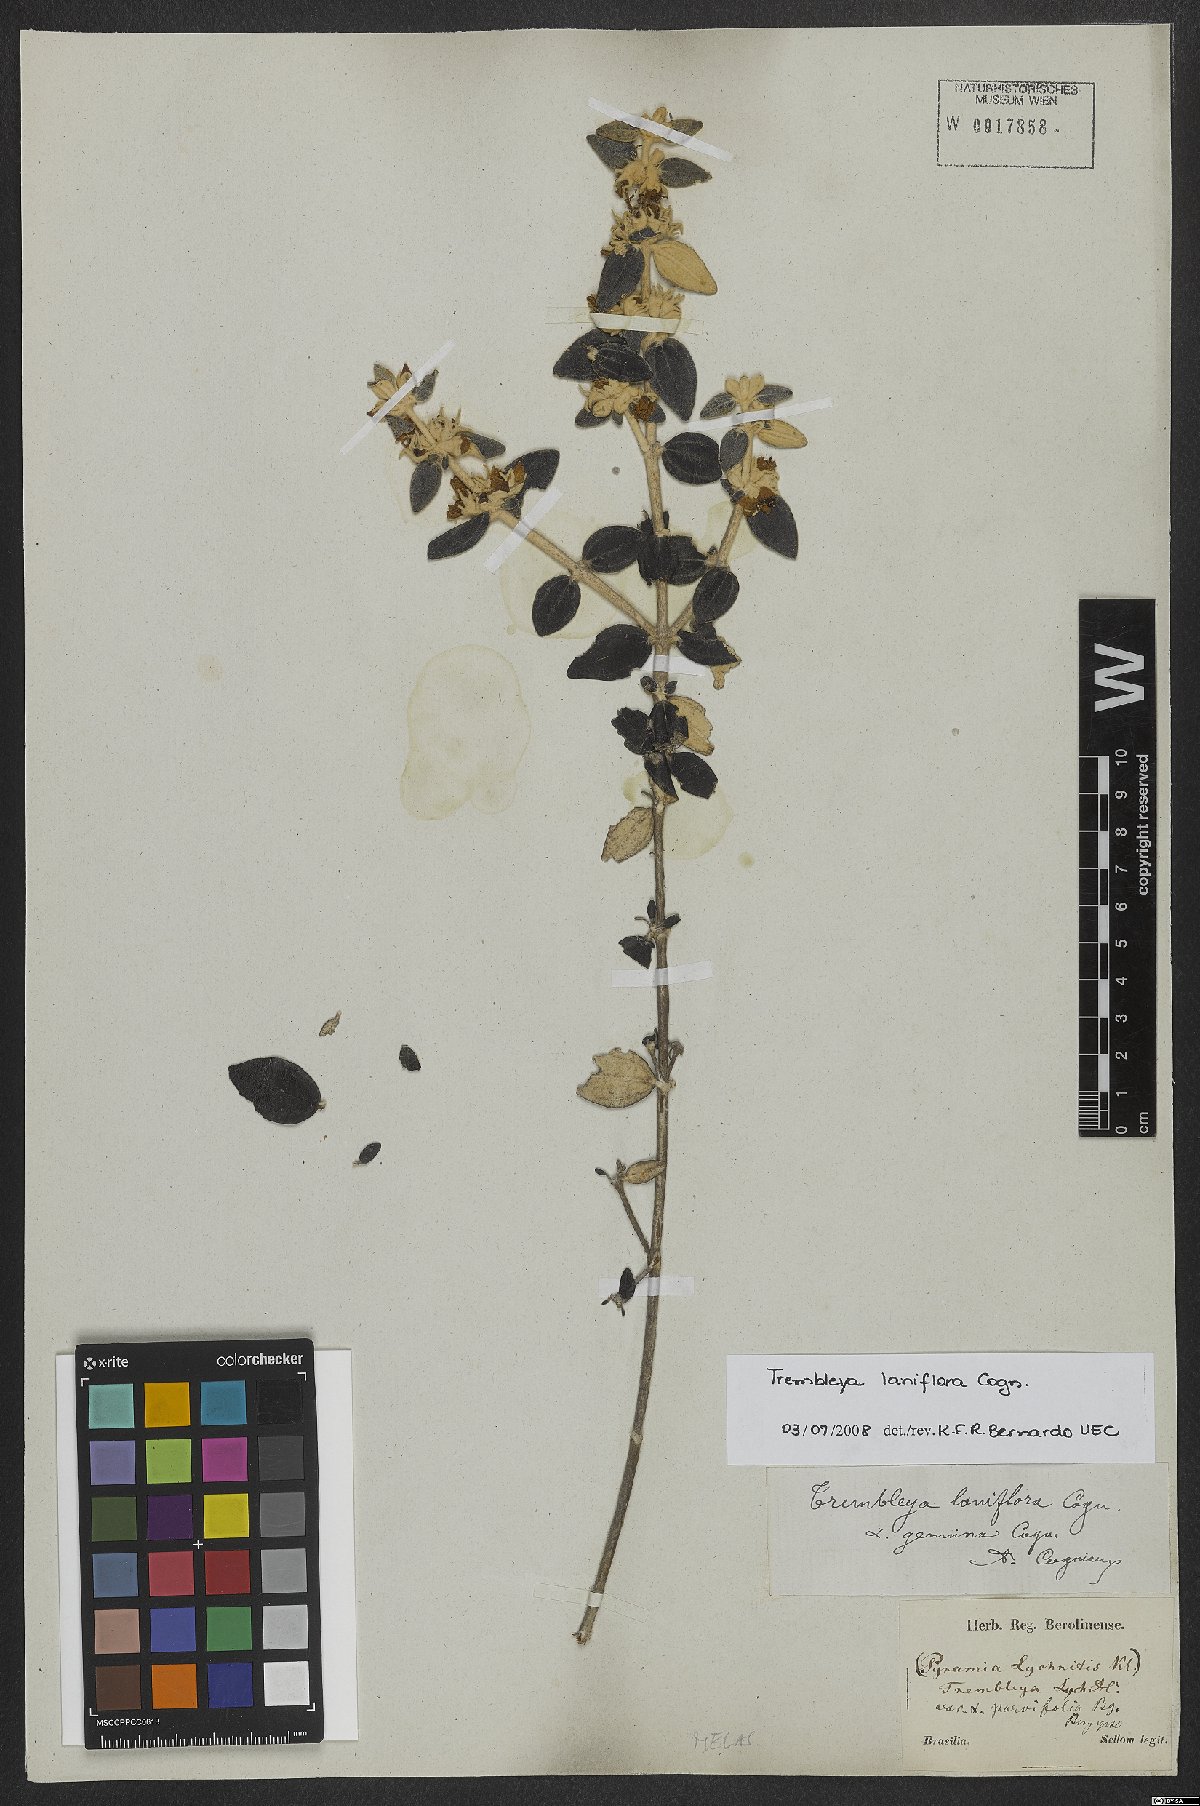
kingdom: Plantae
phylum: Tracheophyta
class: Magnoliopsida
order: Myrtales
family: Melastomataceae
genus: Microlicia
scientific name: Microlicia laniflora
